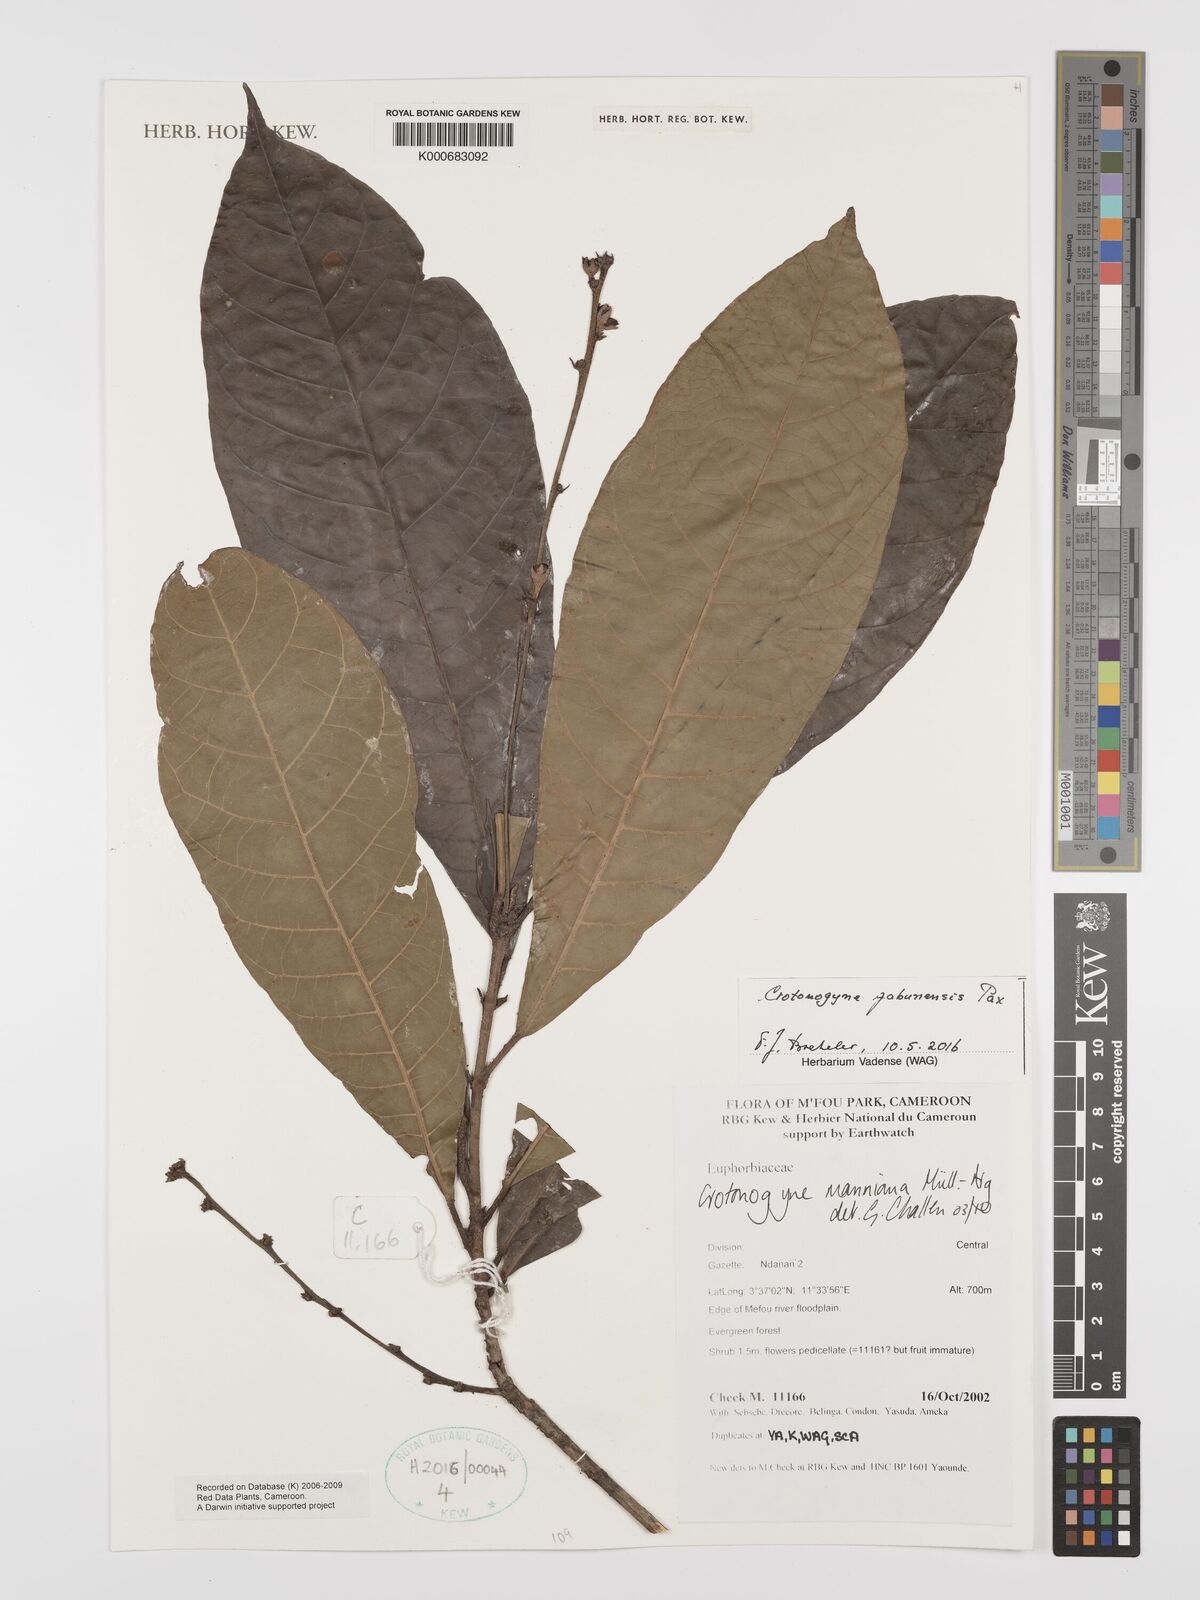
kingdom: Plantae
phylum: Tracheophyta
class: Magnoliopsida
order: Malpighiales
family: Euphorbiaceae
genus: Crotonogyne
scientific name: Crotonogyne
